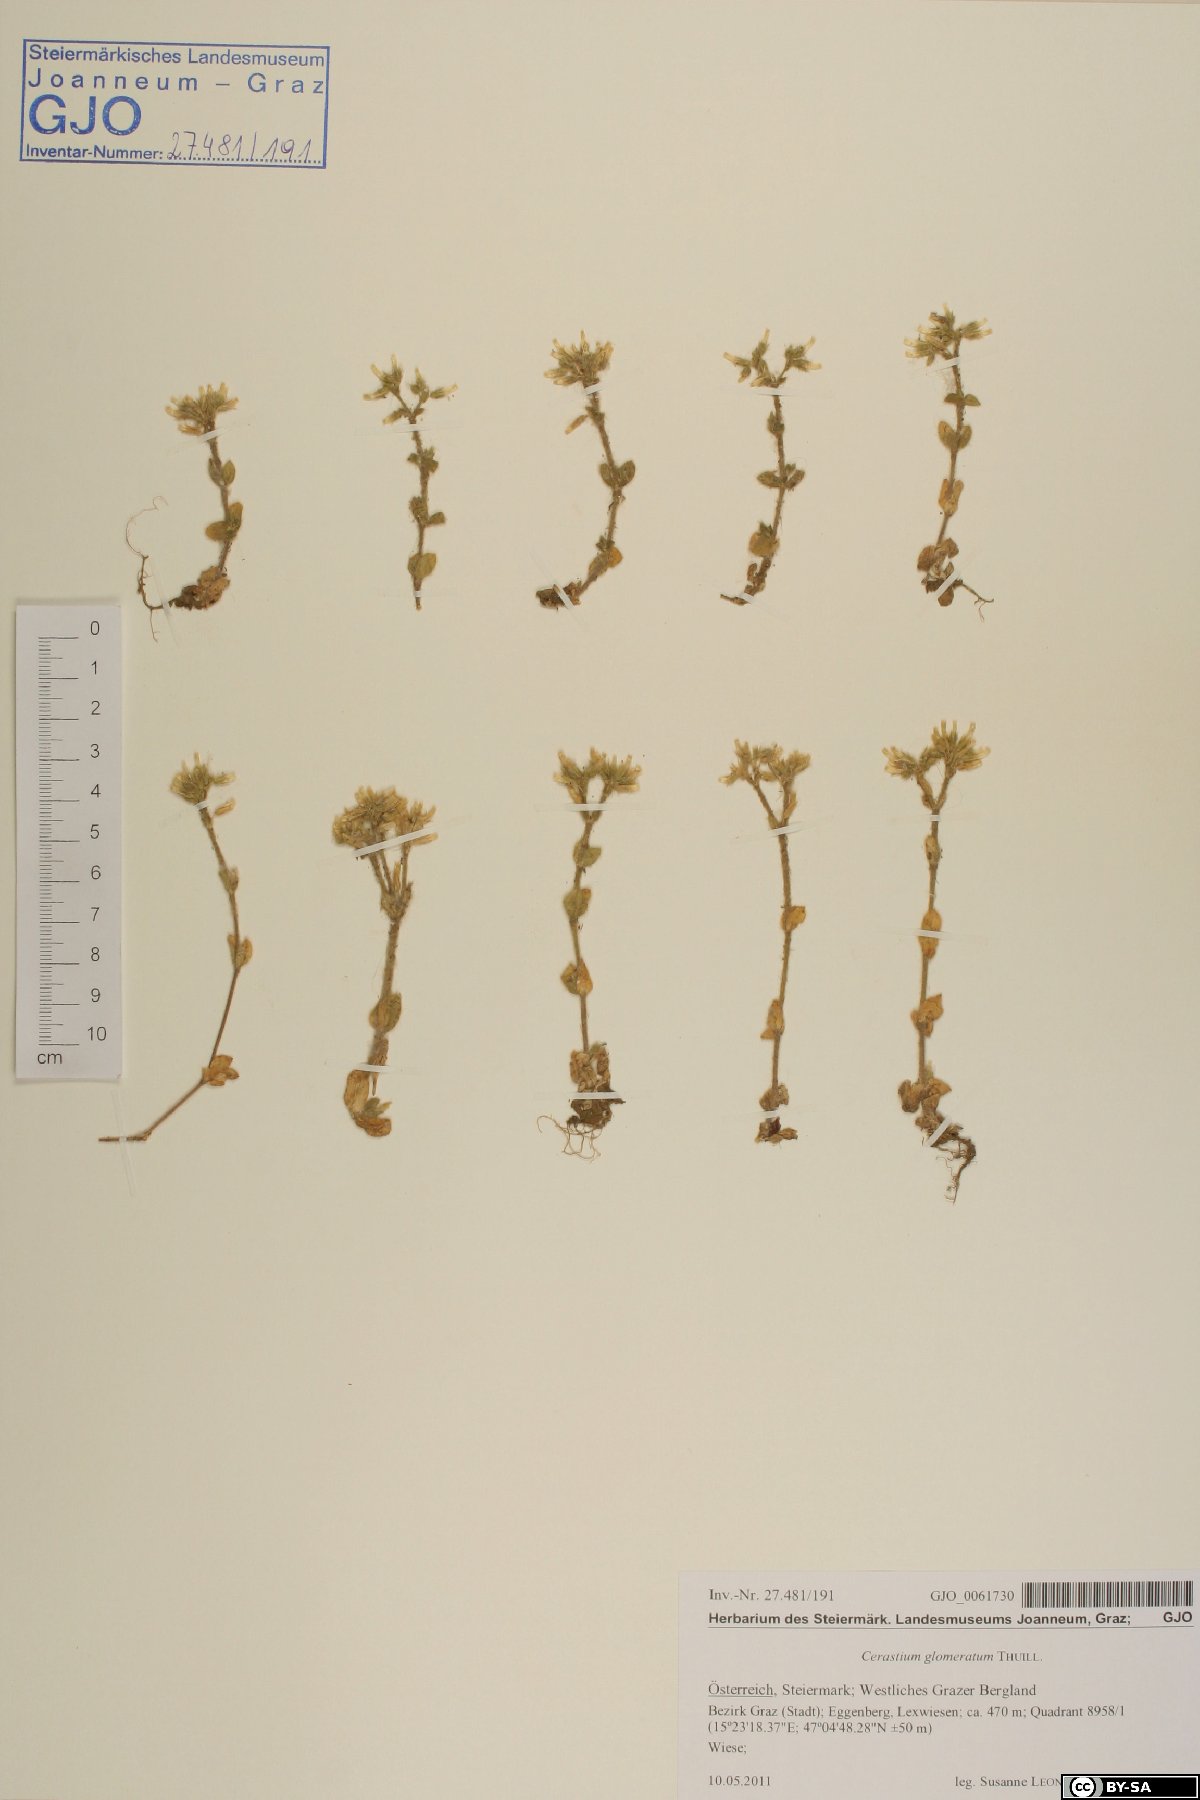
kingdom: Plantae
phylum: Tracheophyta
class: Magnoliopsida
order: Caryophyllales
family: Caryophyllaceae
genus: Cerastium
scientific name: Cerastium glomeratum
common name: Sticky chickweed
